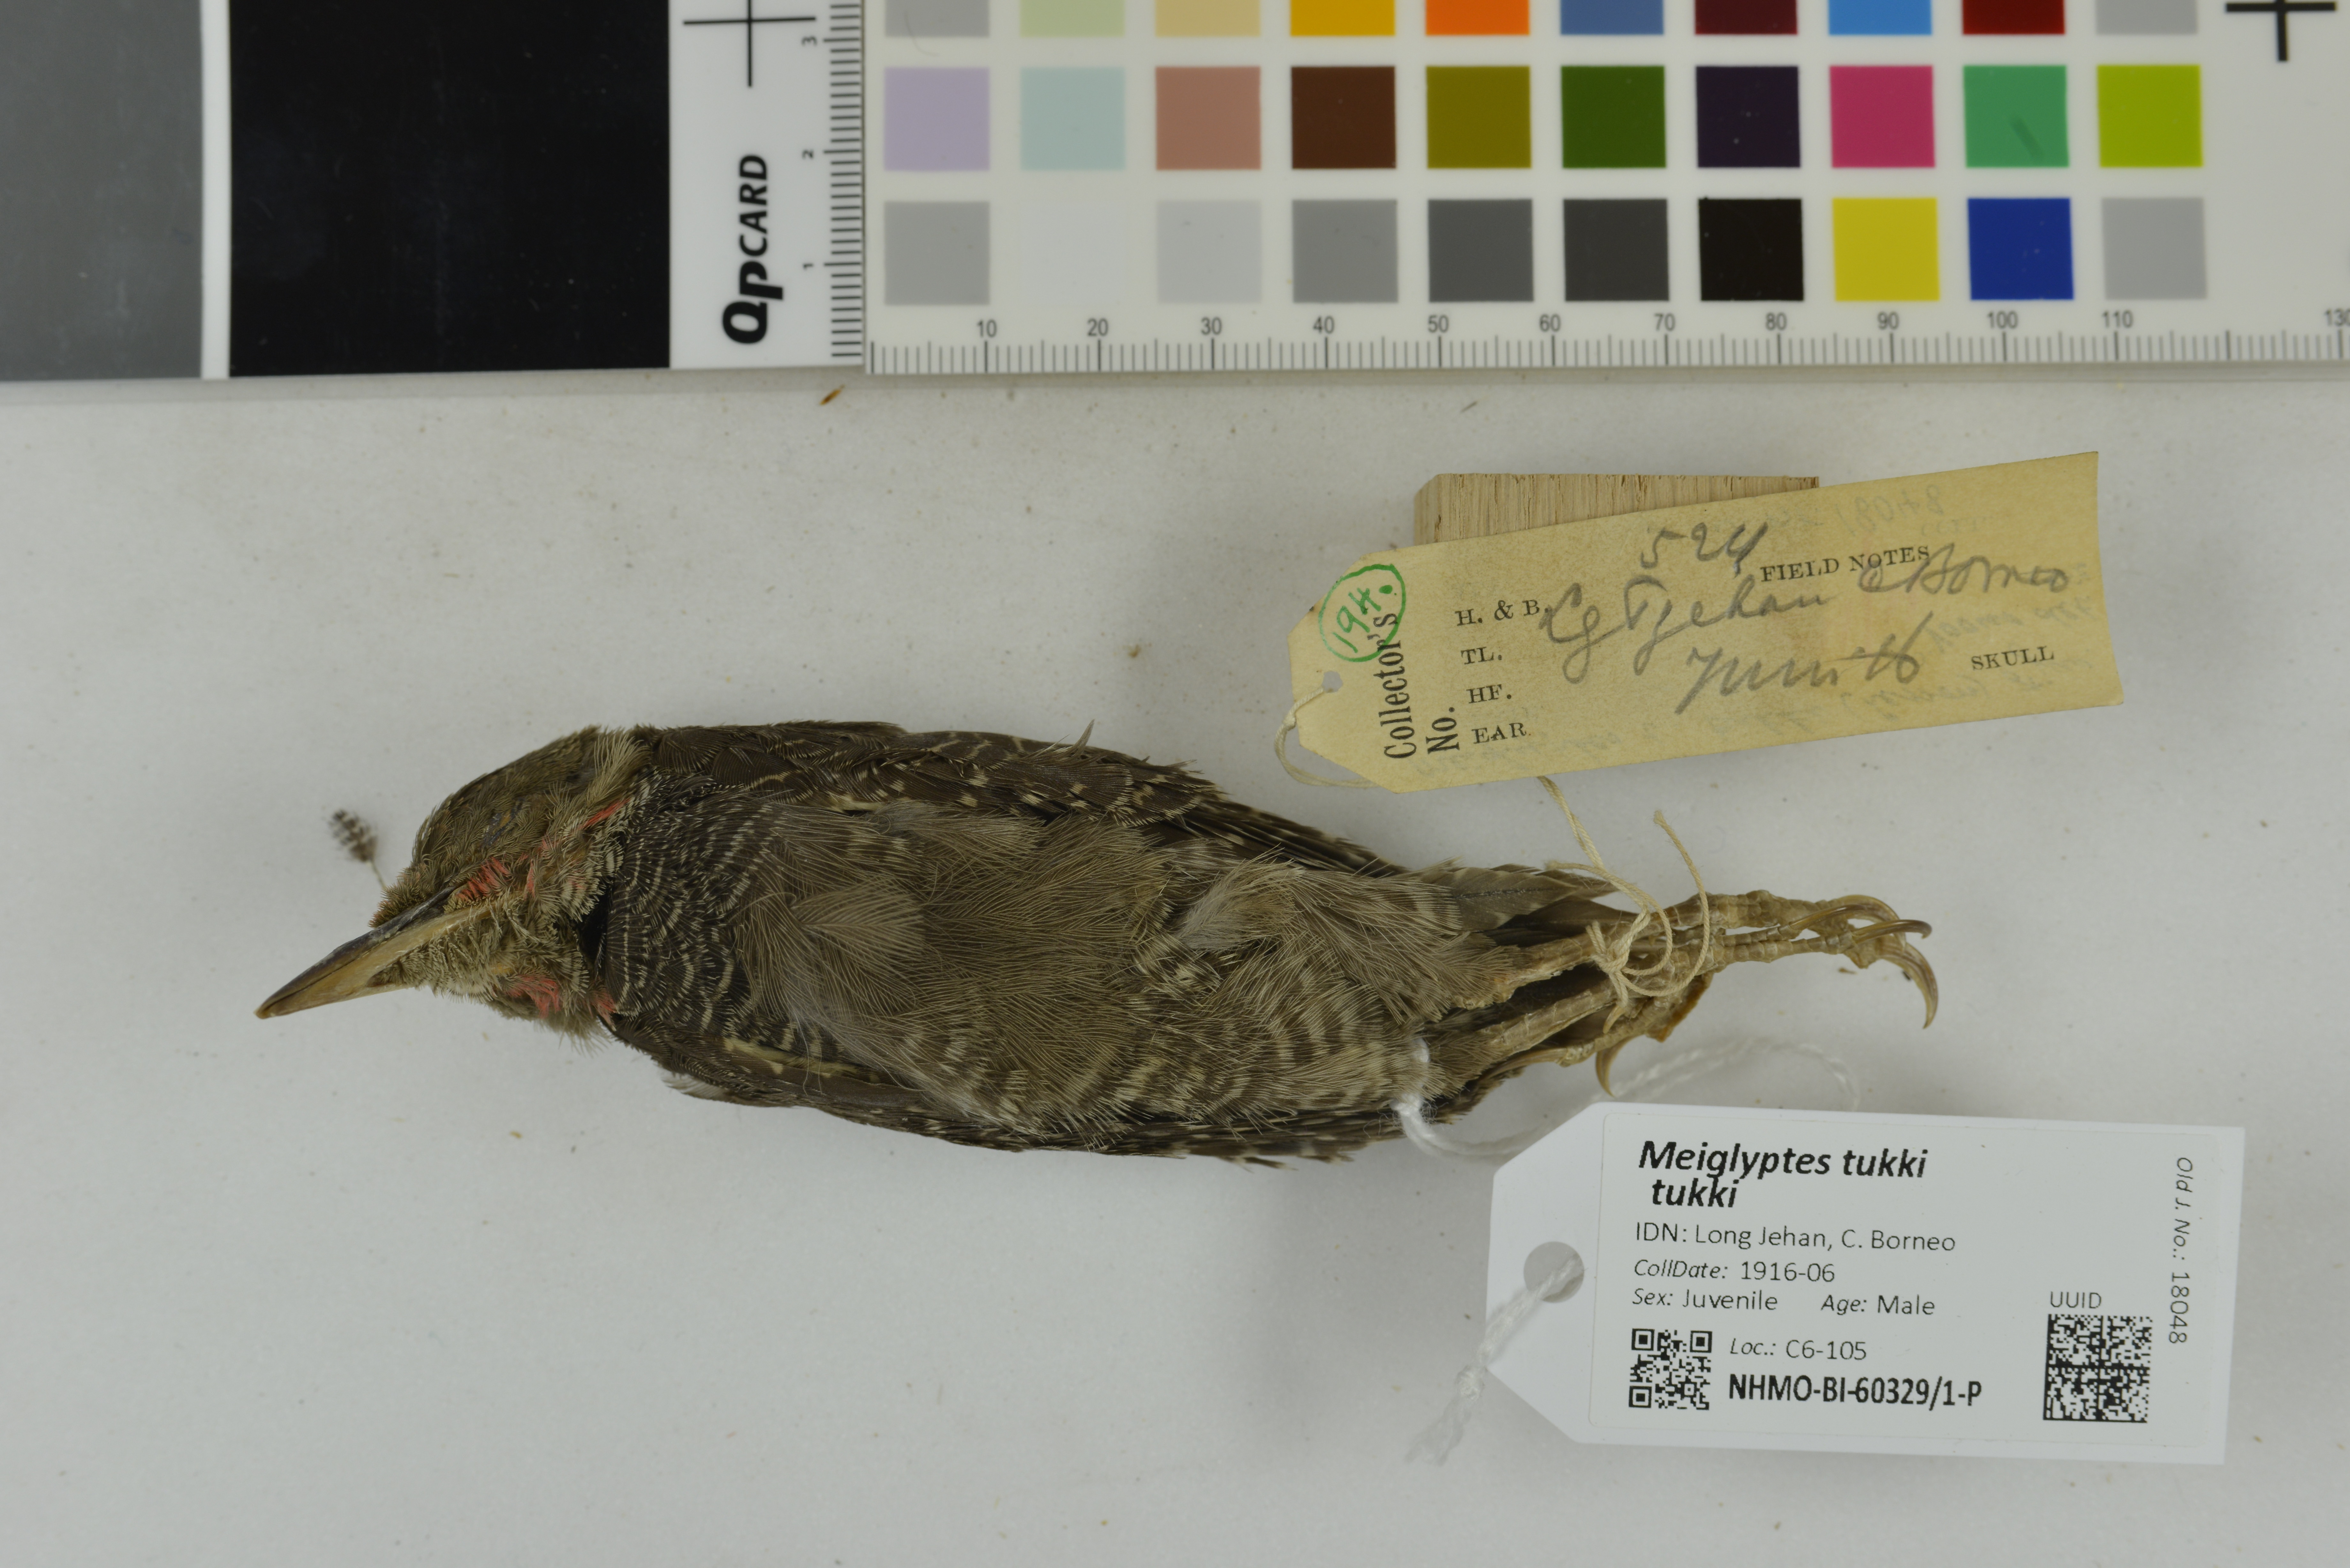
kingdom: Animalia
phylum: Chordata
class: Aves
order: Piciformes
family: Picidae
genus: Meiglyptes
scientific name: Meiglyptes tukki
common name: Buff-necked woodpecker
